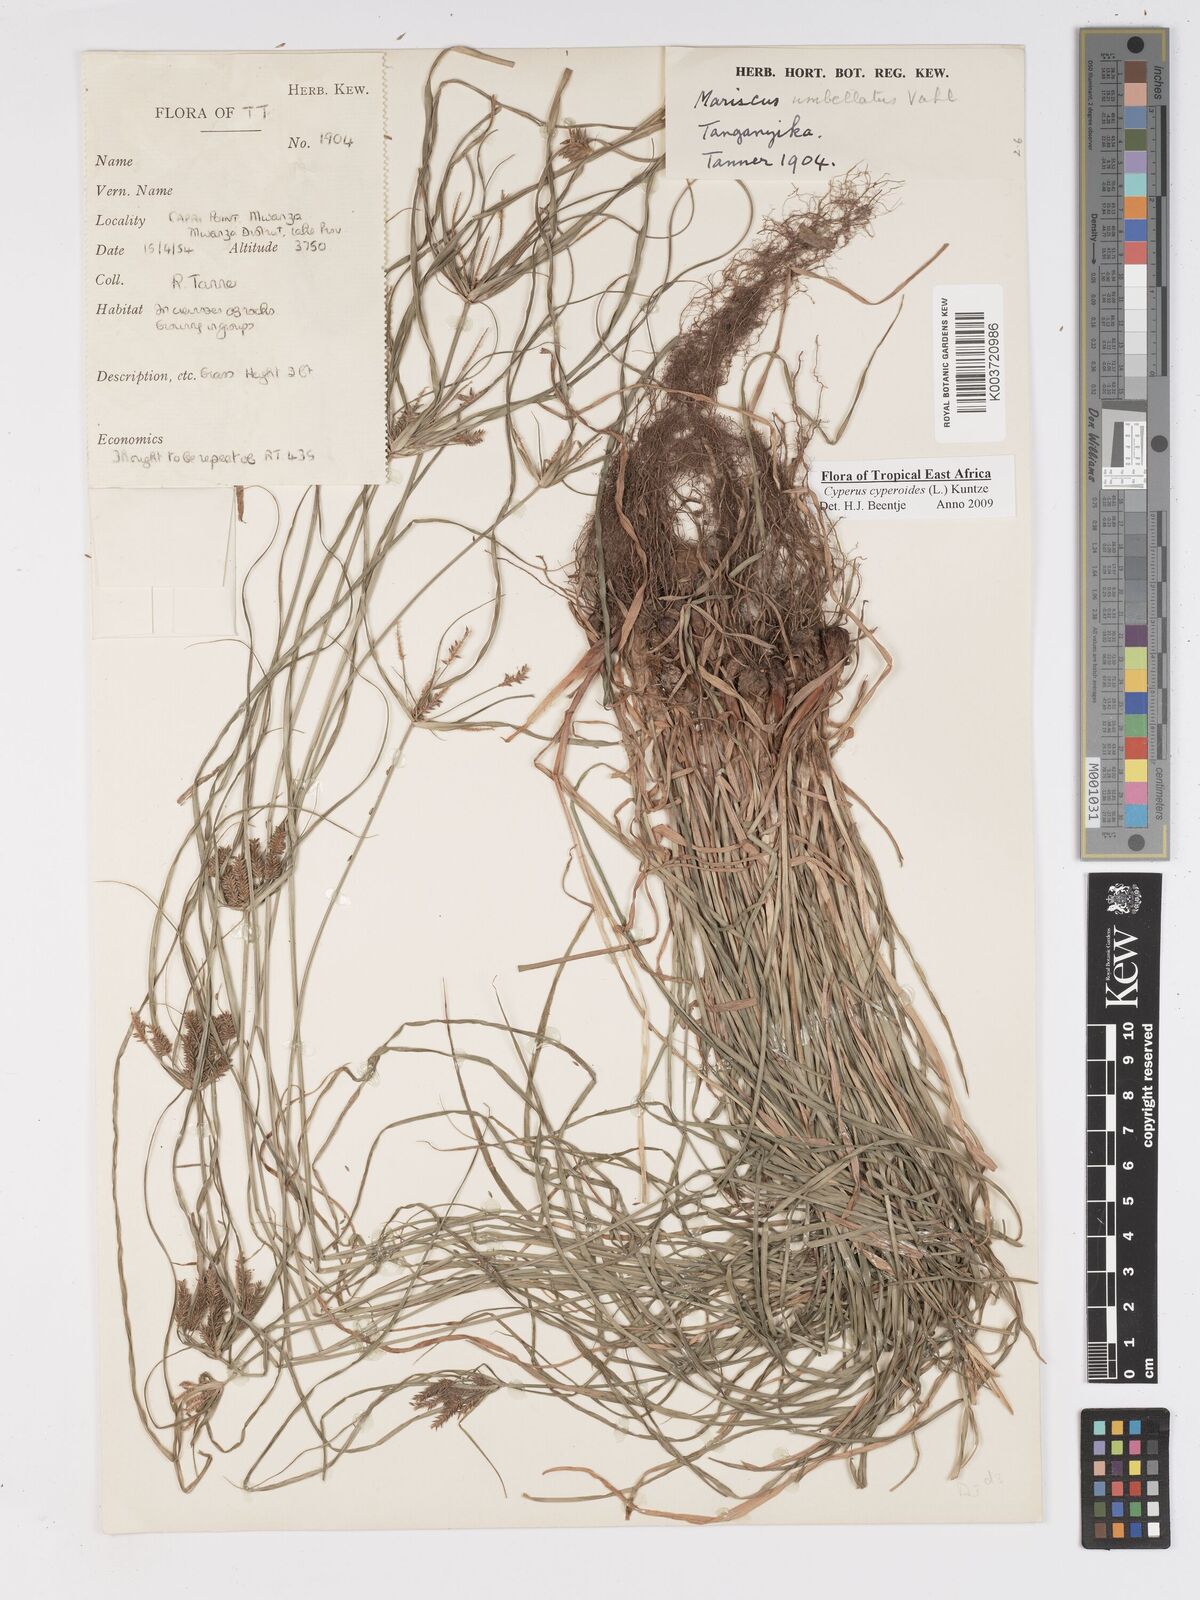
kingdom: Plantae
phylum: Tracheophyta
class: Liliopsida
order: Poales
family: Cyperaceae
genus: Cyperus
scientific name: Cyperus macrocarpus
